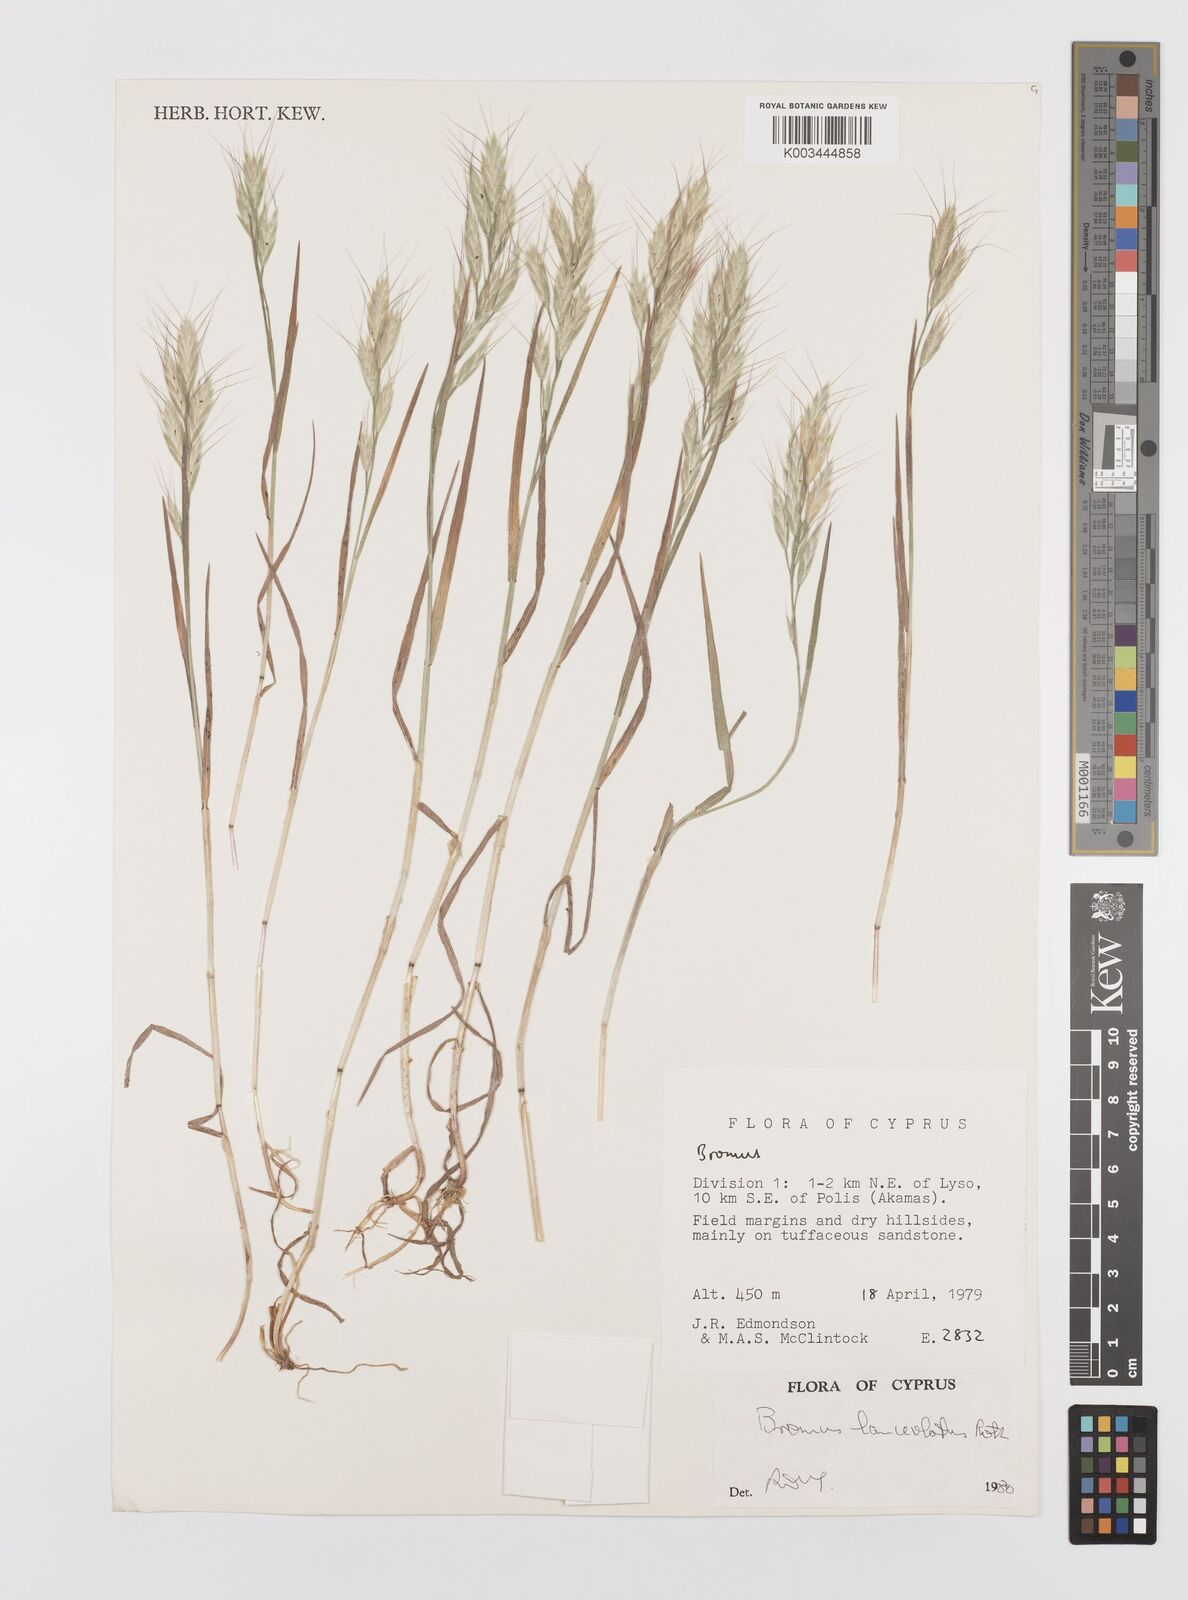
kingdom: Plantae
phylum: Tracheophyta
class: Liliopsida
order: Poales
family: Poaceae
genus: Bromus
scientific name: Bromus lanceolatus
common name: Mediterranean brome
